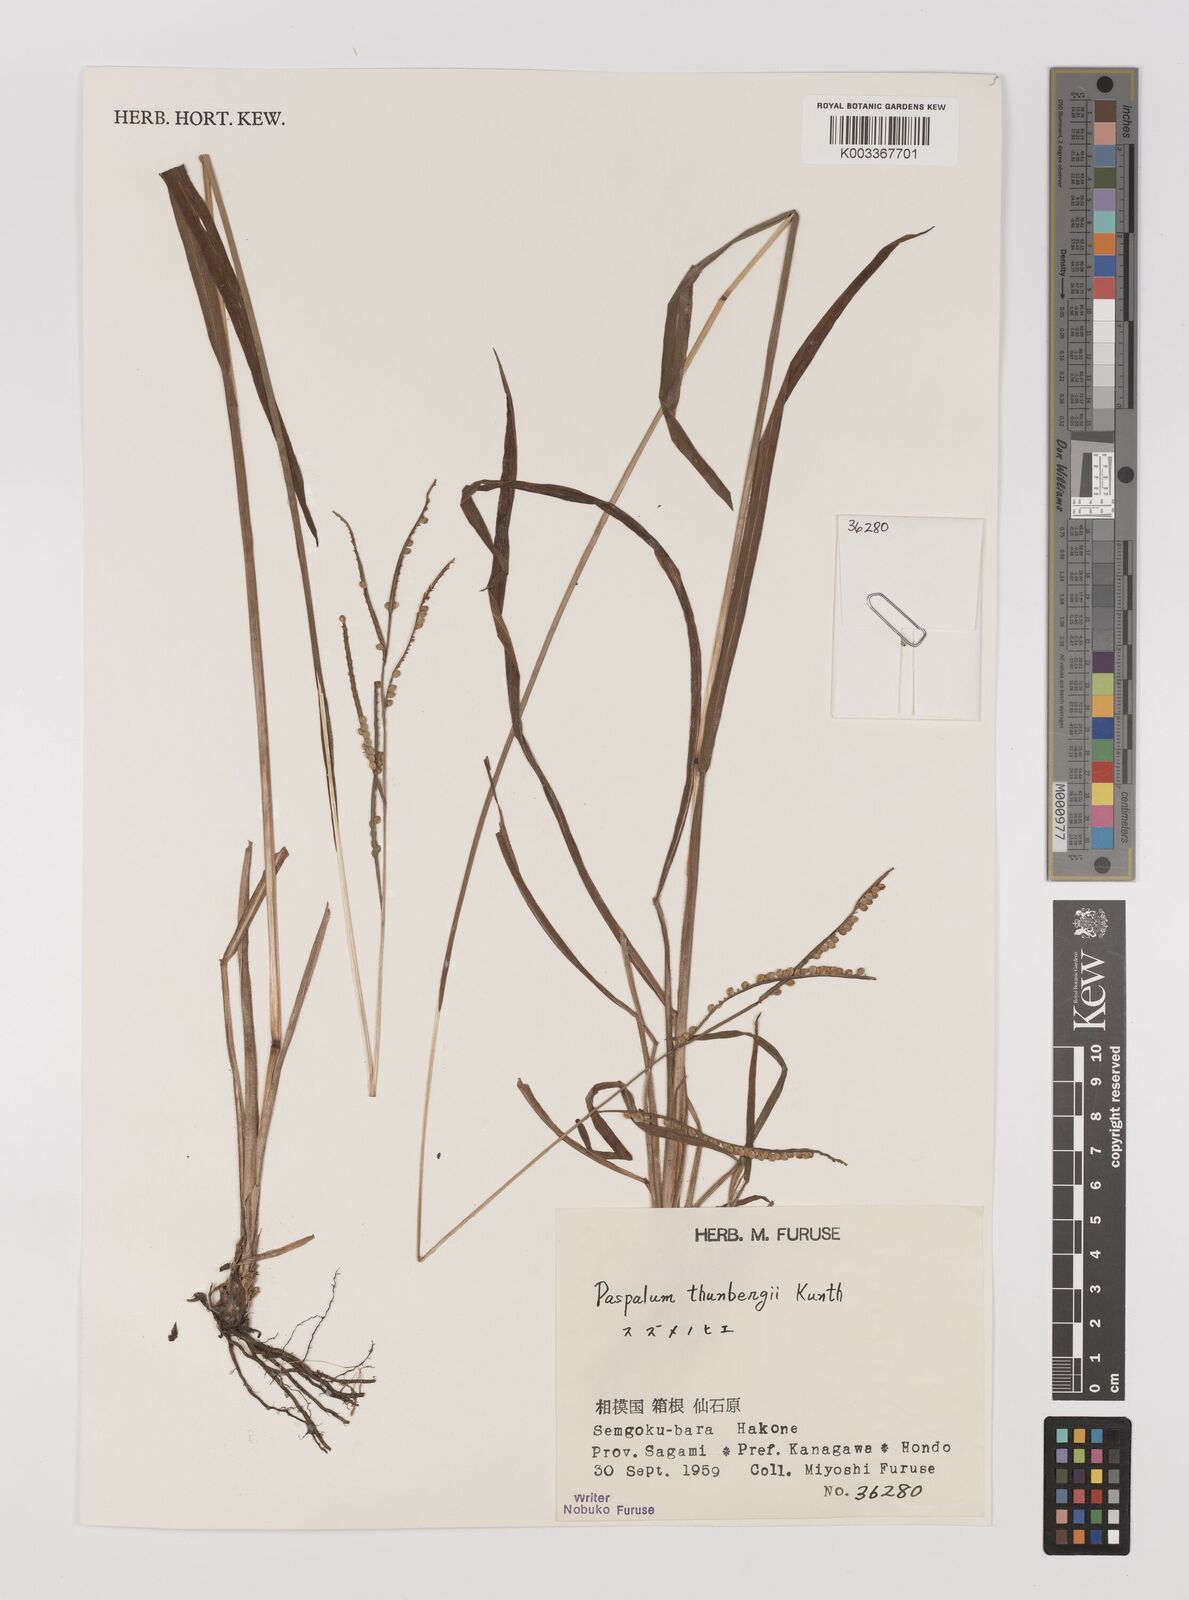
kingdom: Plantae
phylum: Tracheophyta
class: Liliopsida
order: Poales
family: Poaceae
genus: Panicum
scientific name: Panicum
